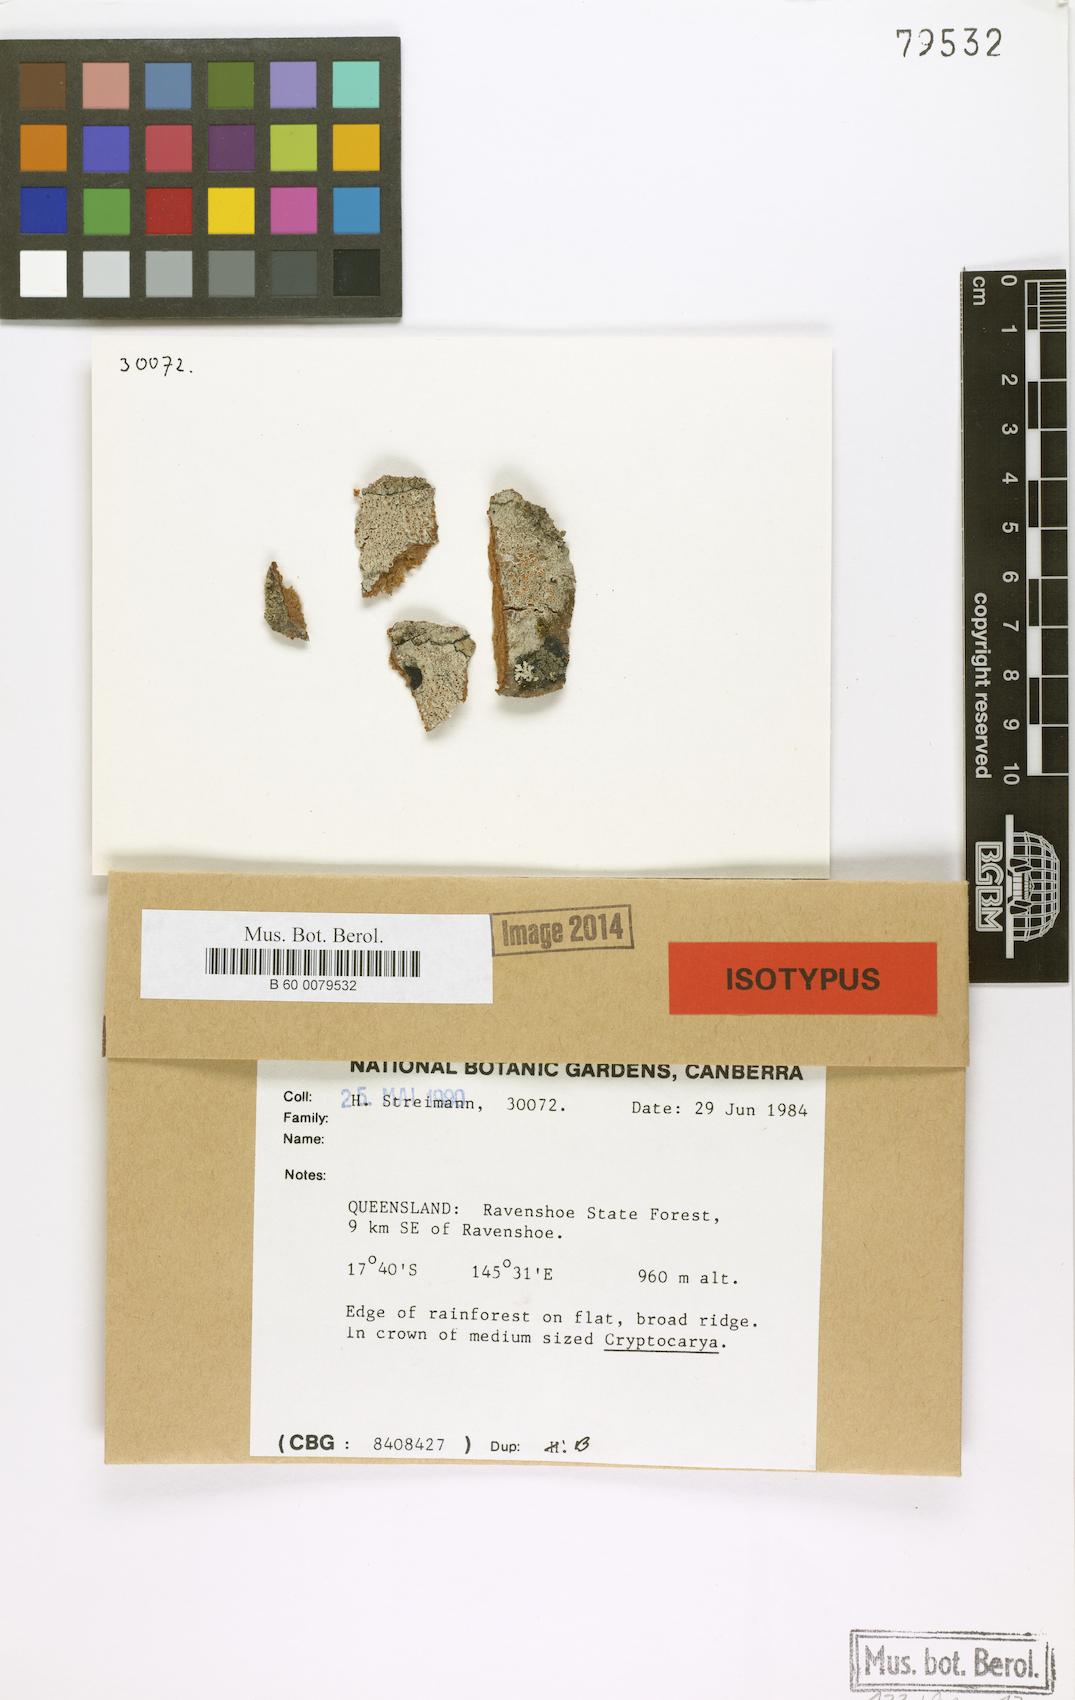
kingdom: Fungi
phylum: Ascomycota
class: Lecanoromycetes
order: Lecanorales
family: Lecanoraceae
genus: Lecanora
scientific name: Lecanora novae-hollandiae
